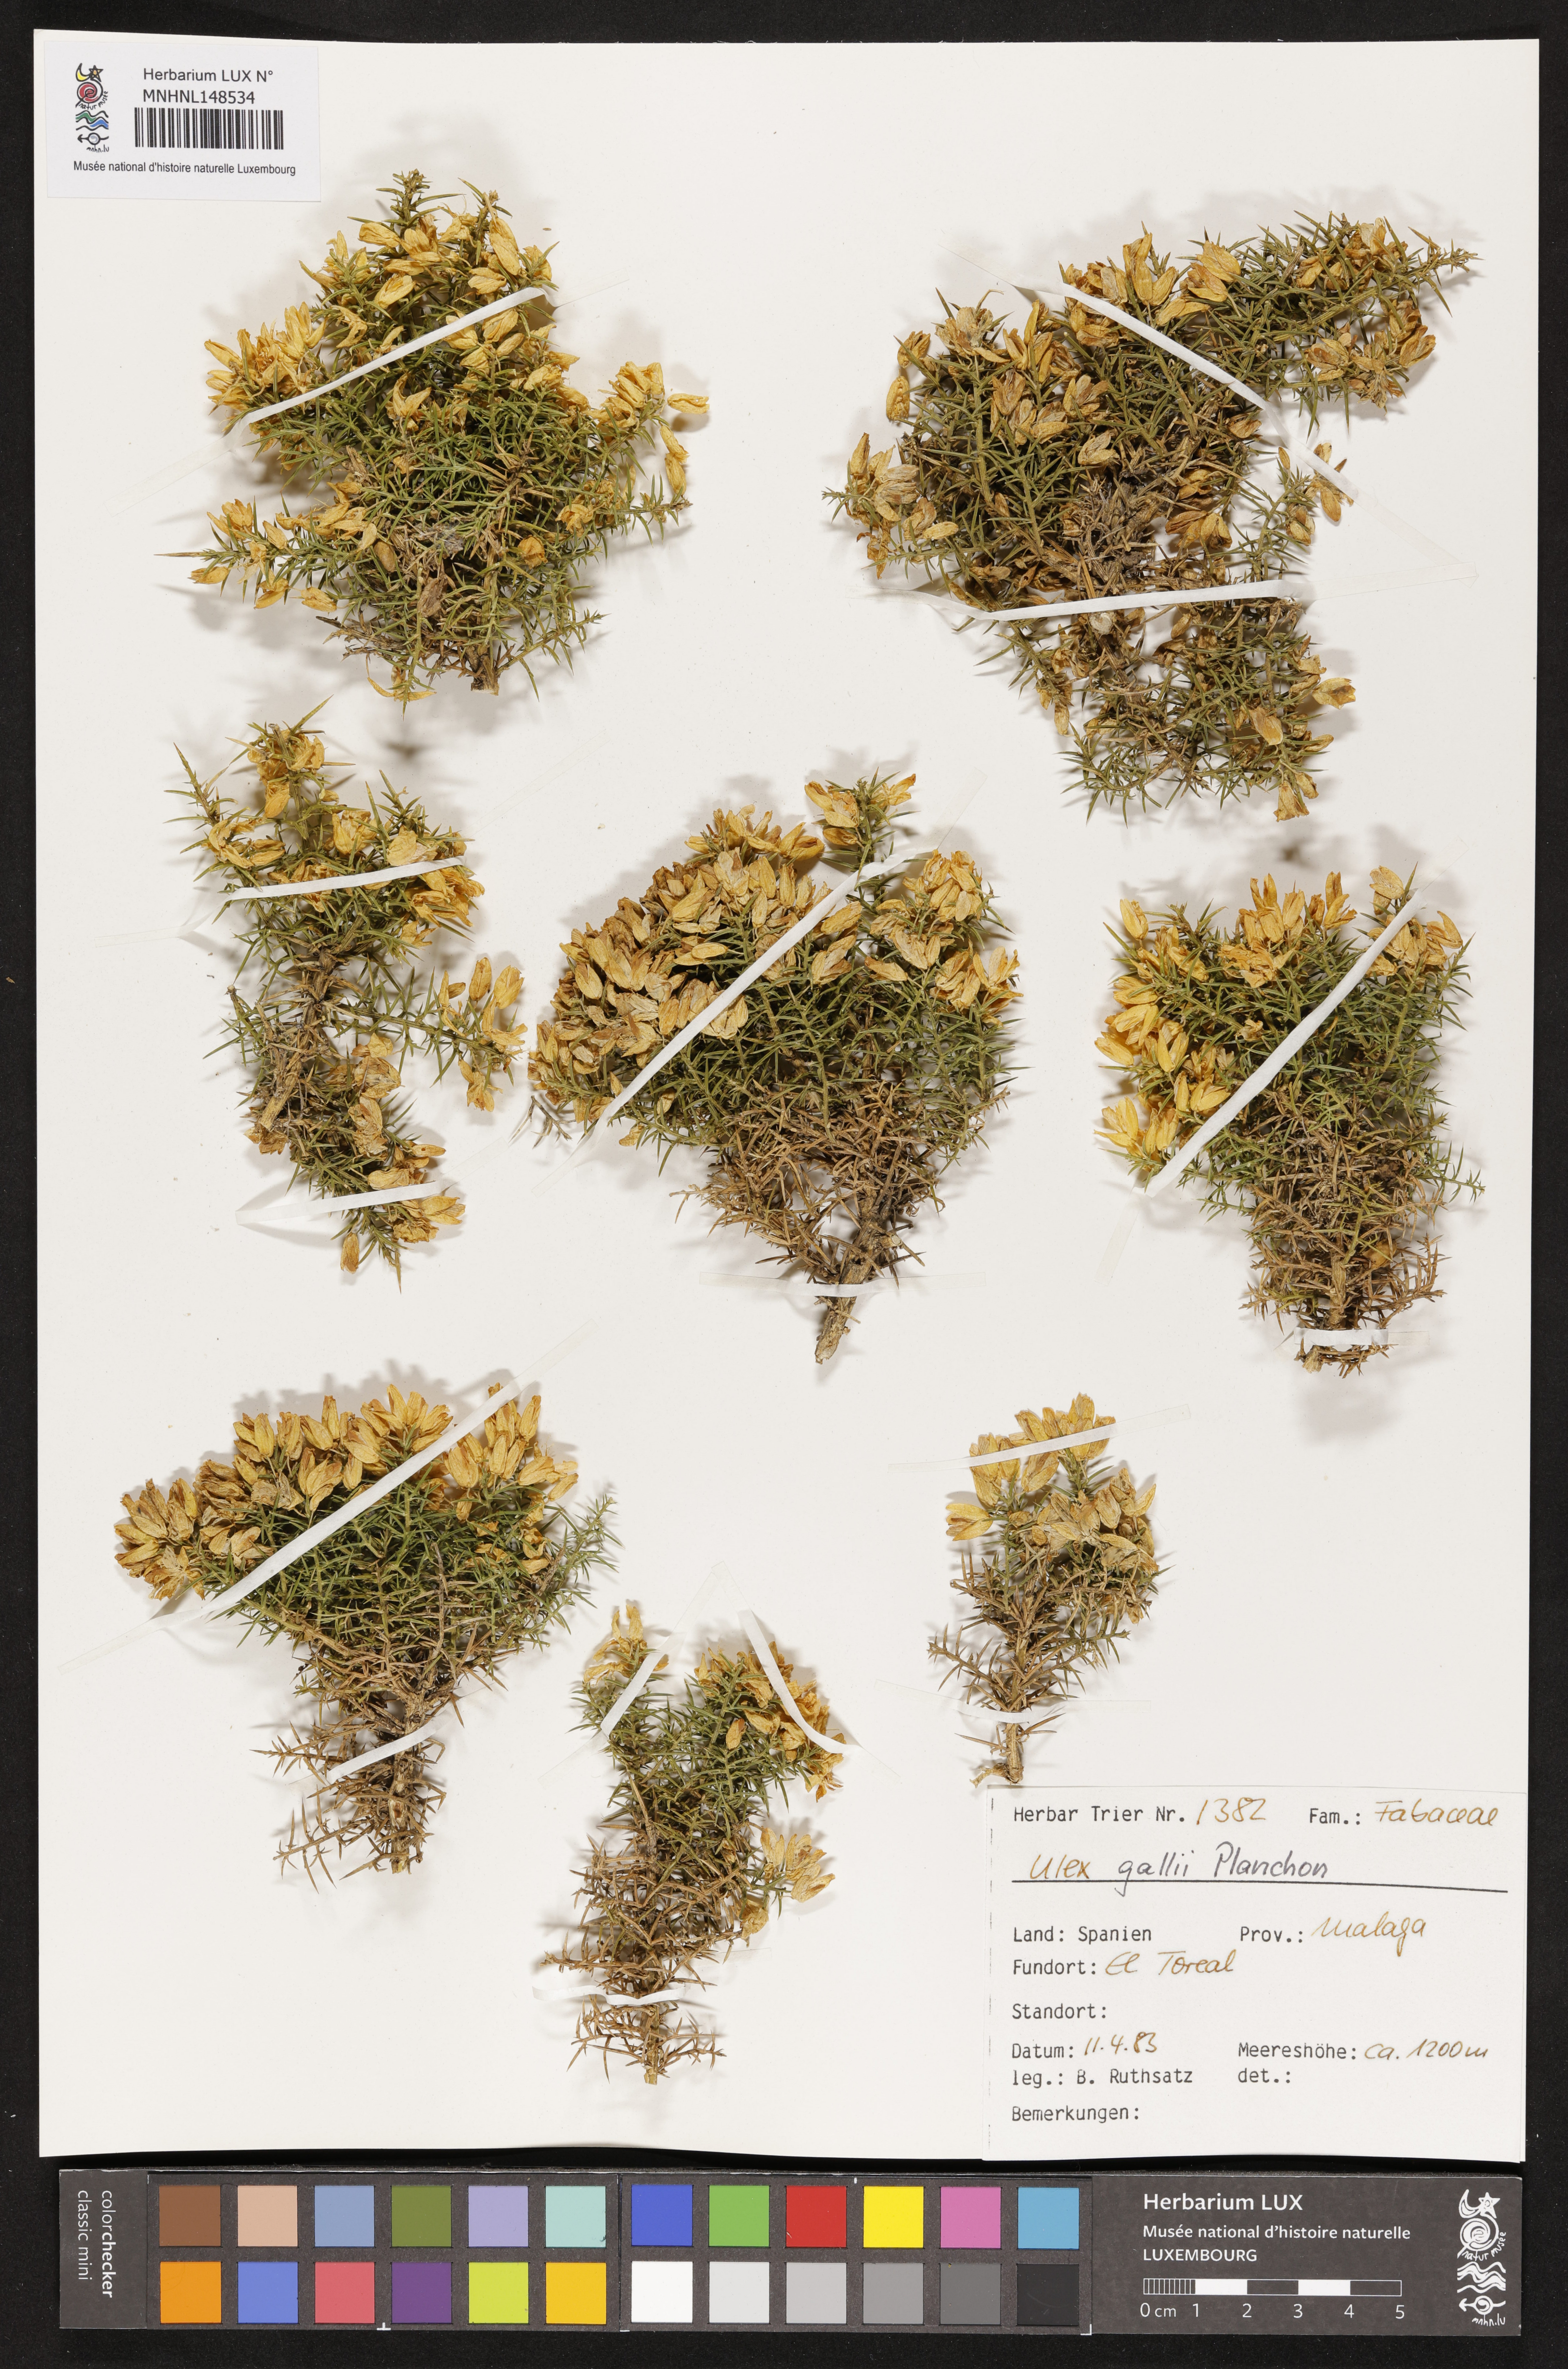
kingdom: Plantae
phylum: Tracheophyta
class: Magnoliopsida
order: Fabales
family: Fabaceae
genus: Ulex
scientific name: Ulex gallii
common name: Western gorse
